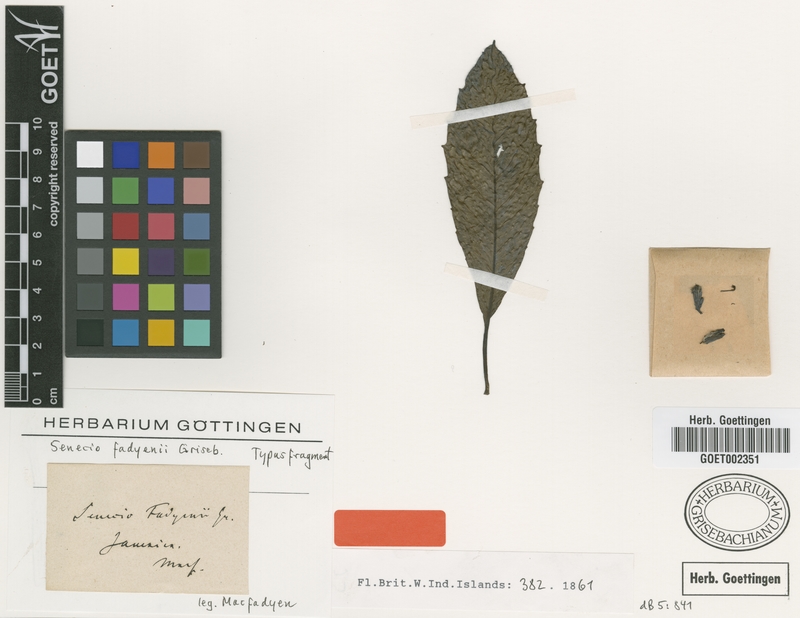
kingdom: Plantae
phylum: Tracheophyta
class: Magnoliopsida
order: Asterales
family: Asteraceae
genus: Odontocline
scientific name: Odontocline fadyenii
